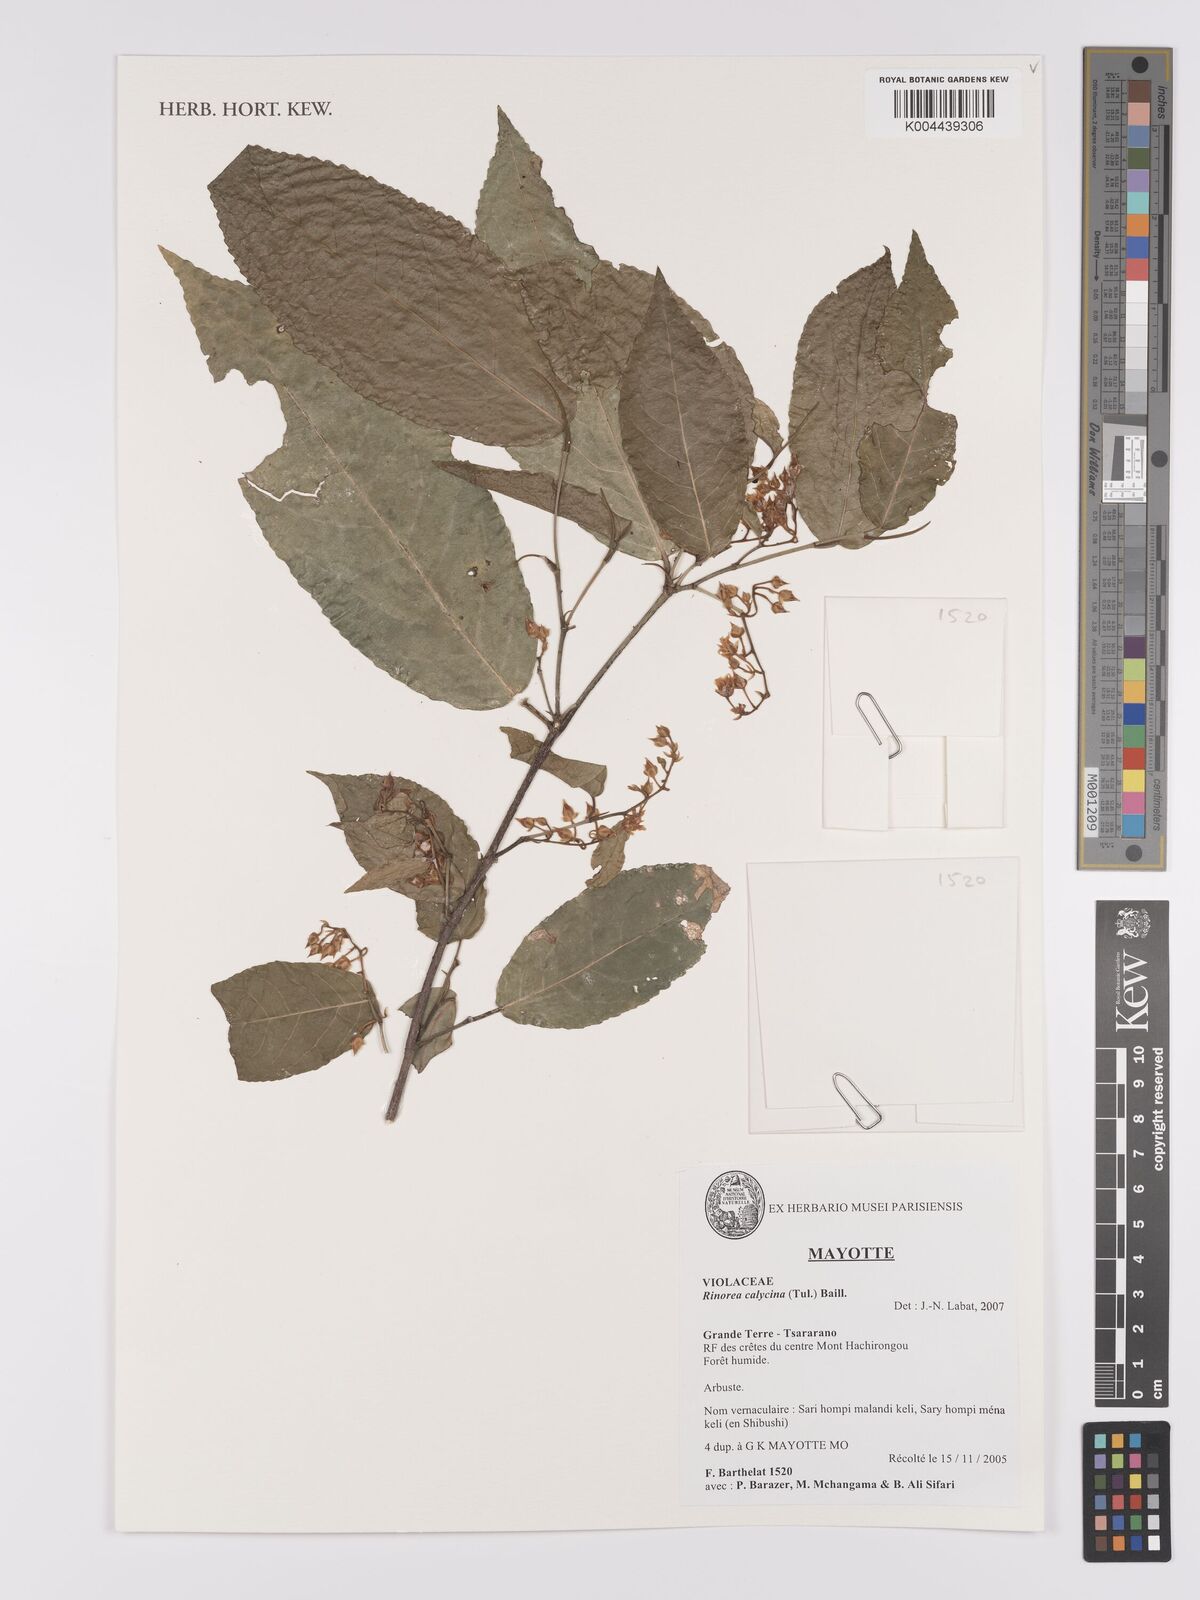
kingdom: Plantae
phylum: Tracheophyta
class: Magnoliopsida
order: Malpighiales
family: Violaceae
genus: Rinorea
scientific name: Rinorea calycina
